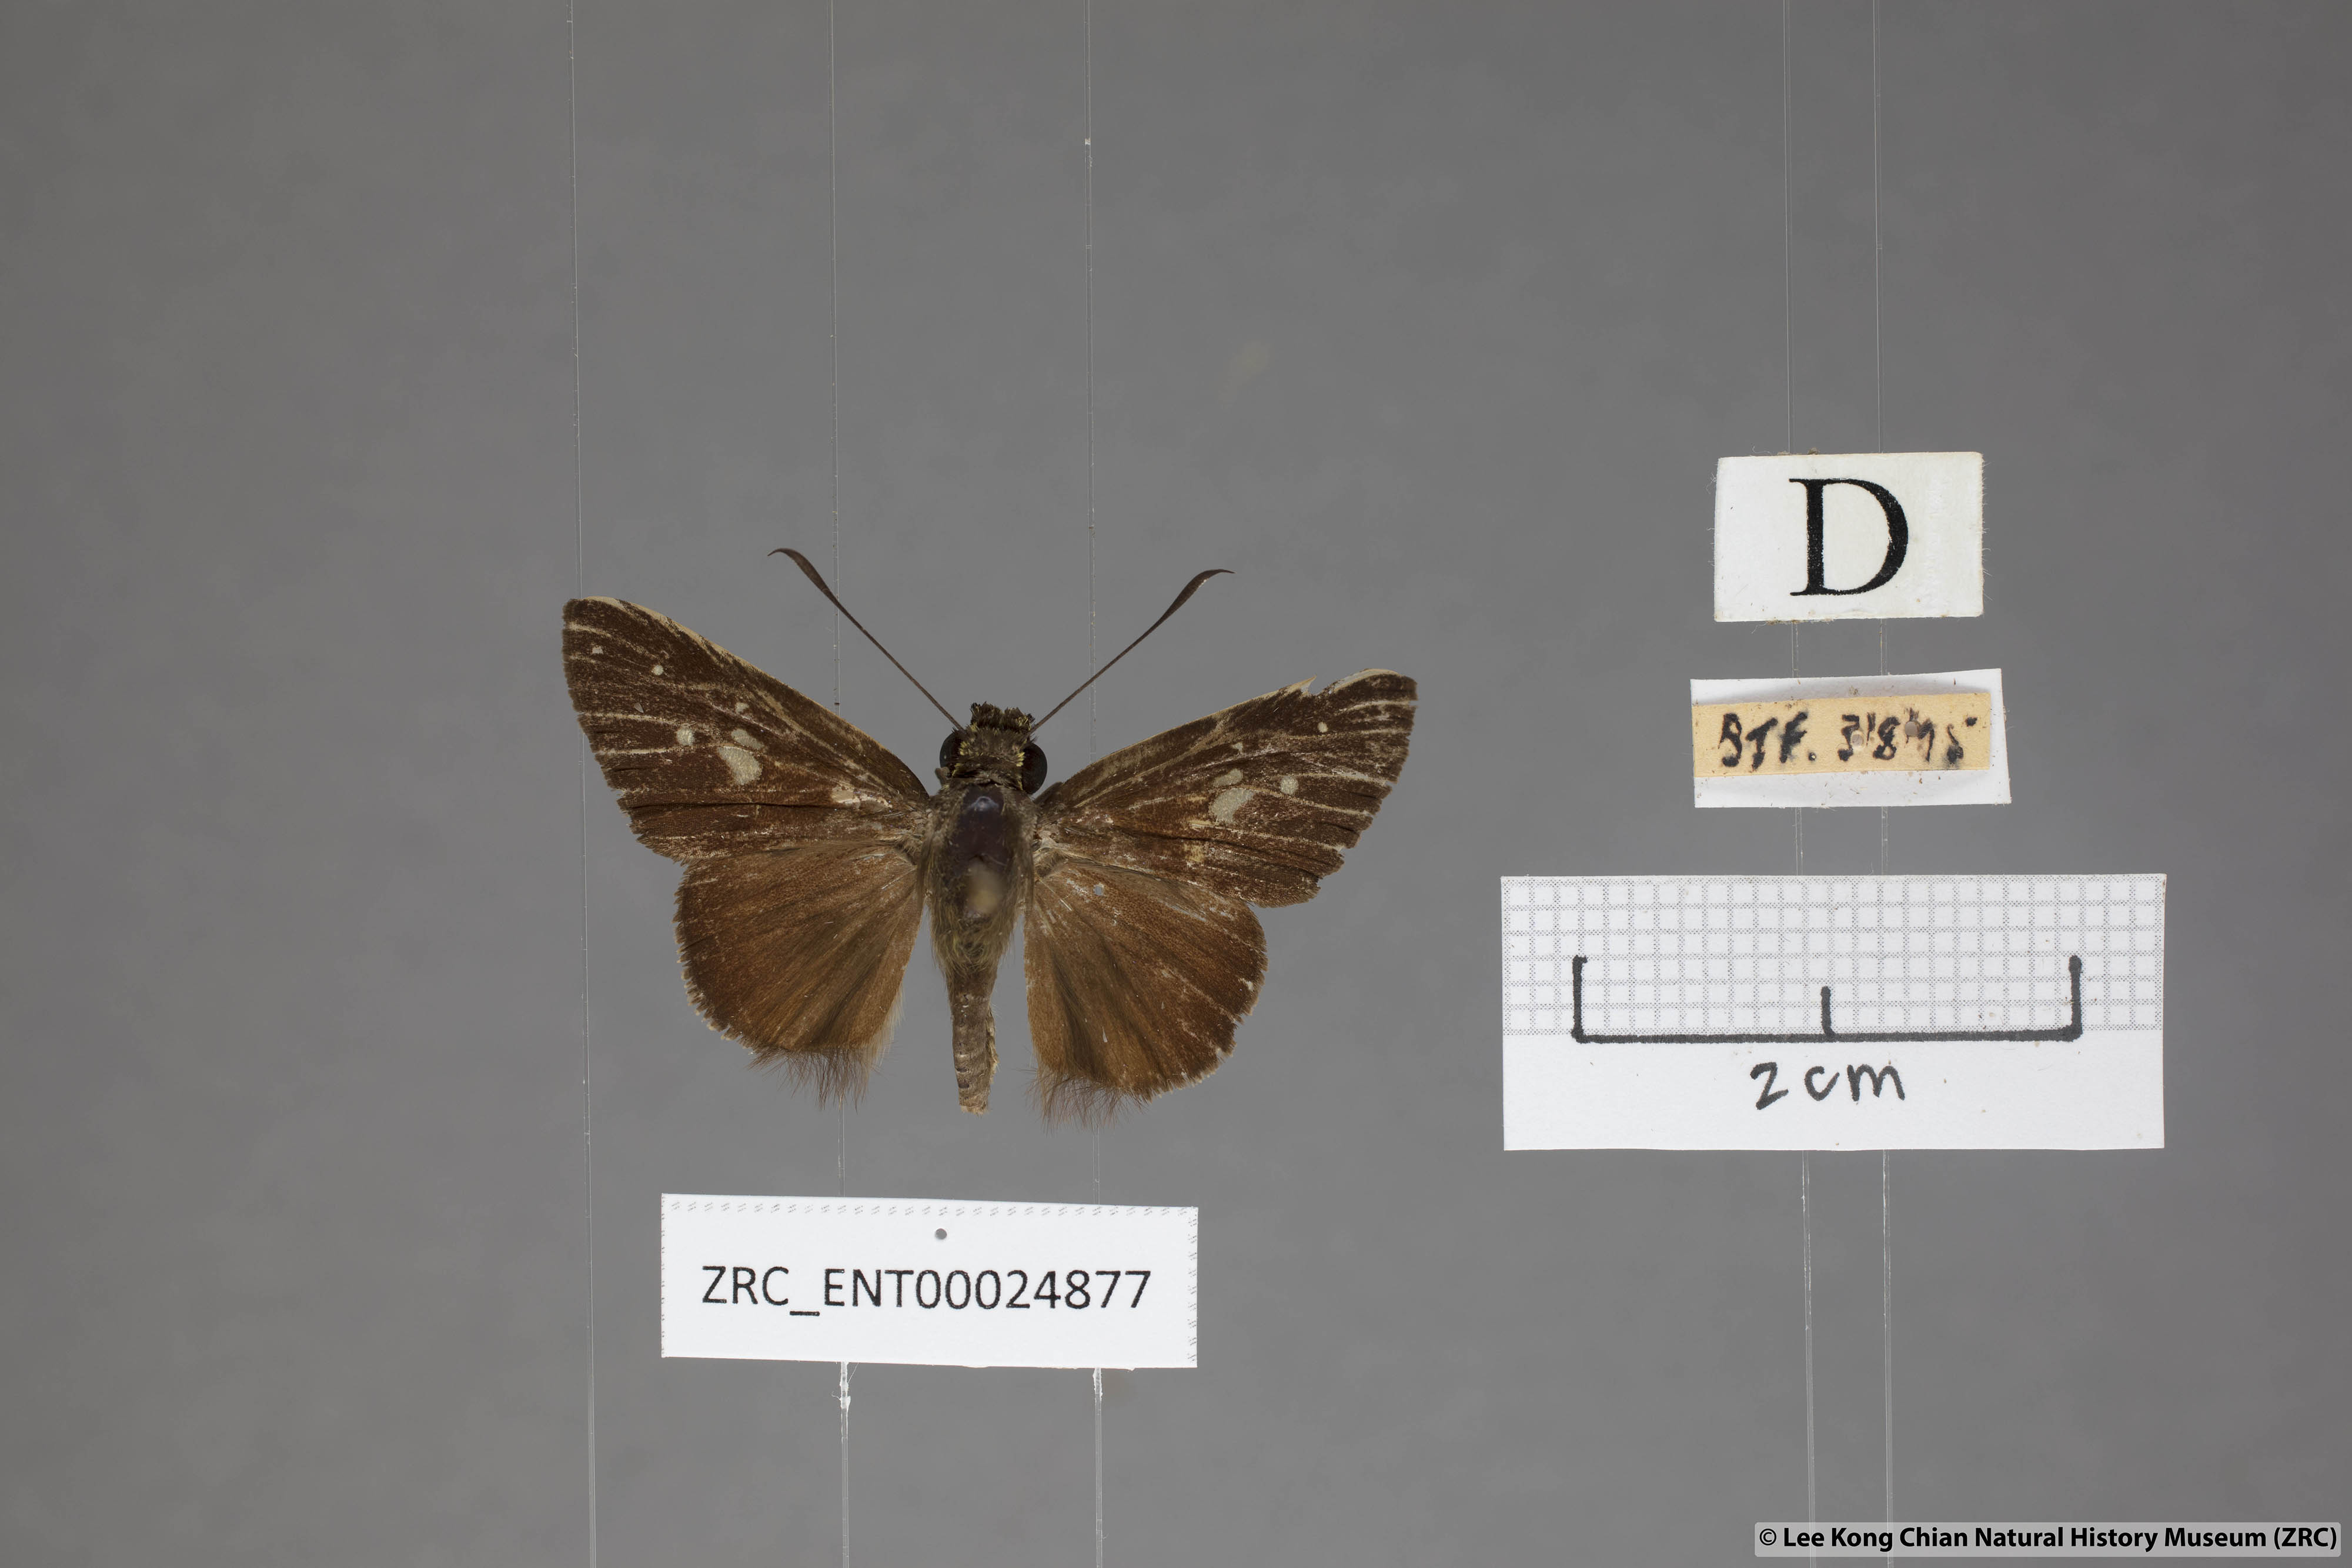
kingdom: Animalia
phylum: Arthropoda
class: Insecta
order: Lepidoptera
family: Hesperiidae
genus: Isma
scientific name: Isma protoclea
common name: Bicolour long-horned flitter
